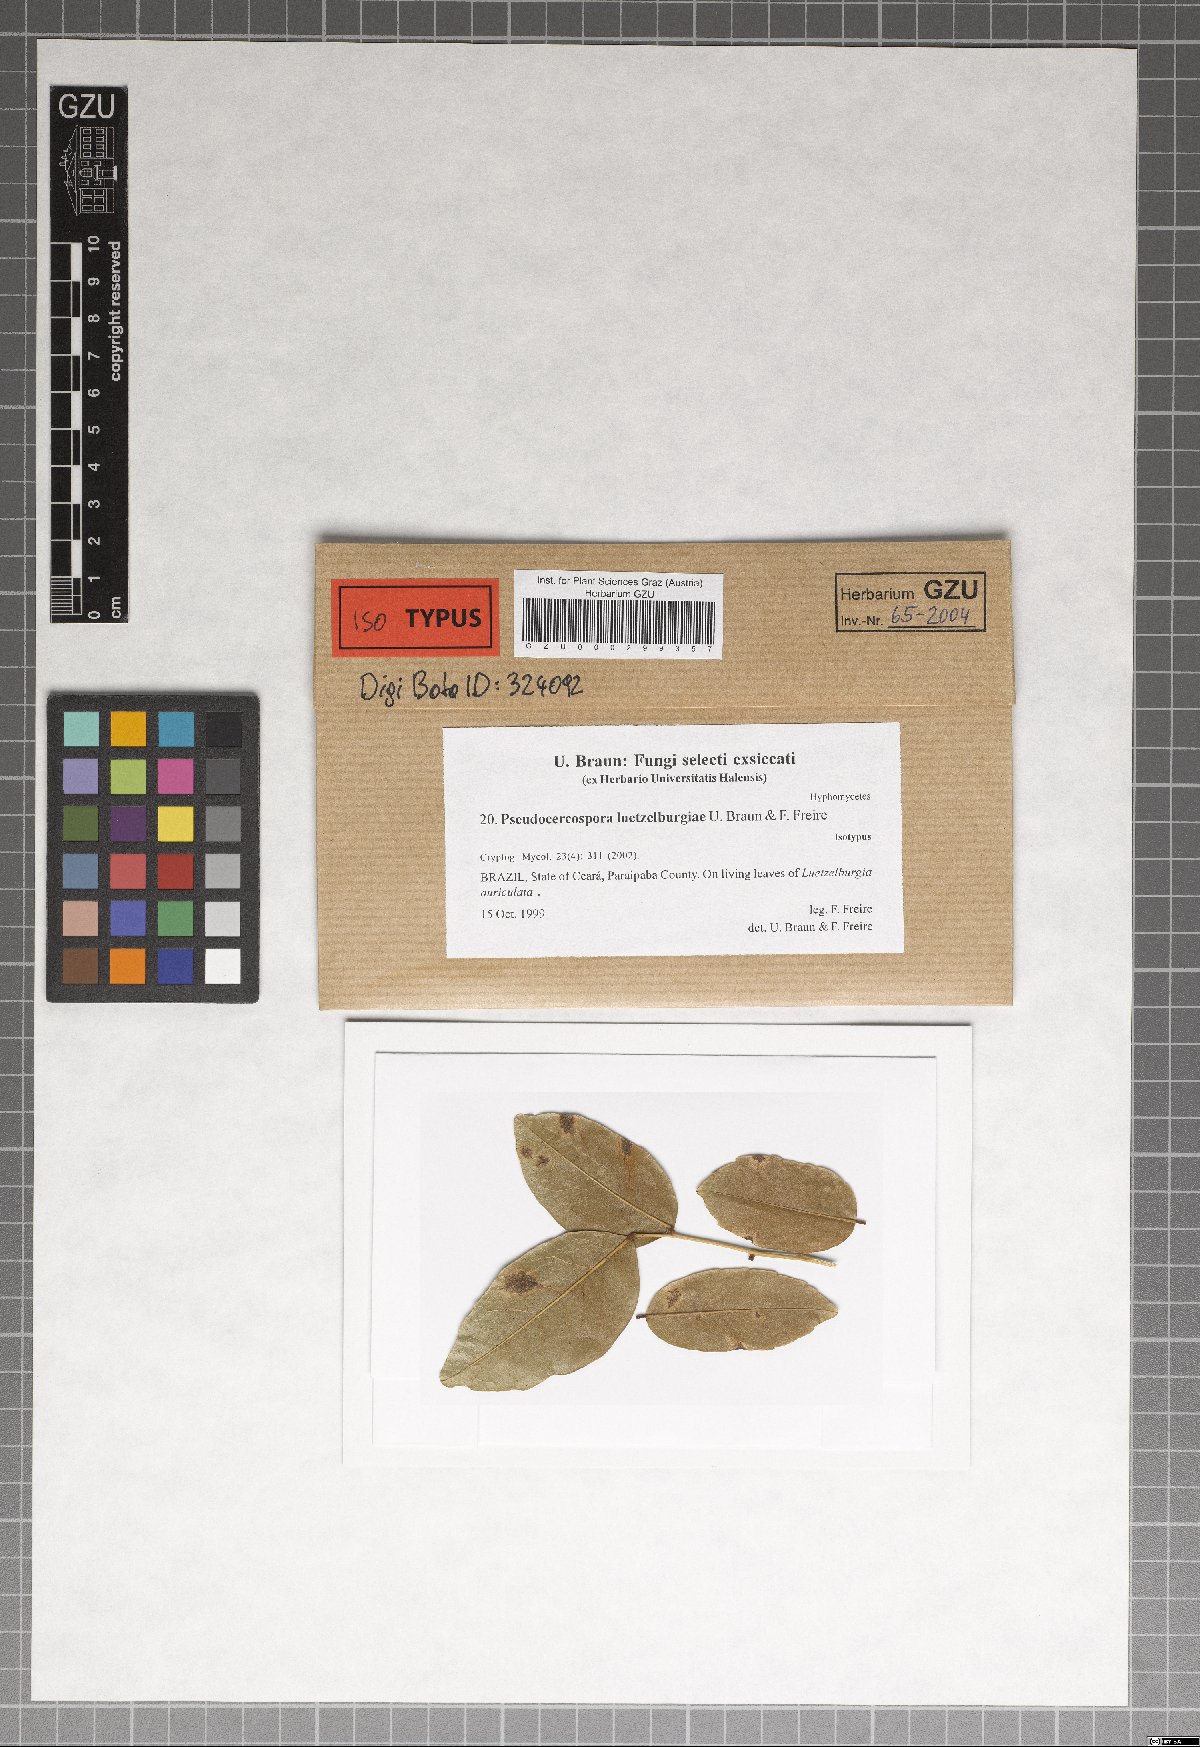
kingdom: Fungi
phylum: Ascomycota
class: Dothideomycetes
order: Mycosphaerellales
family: Mycosphaerellaceae
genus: Pseudocercospora
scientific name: Pseudocercospora luetzelburgiae
